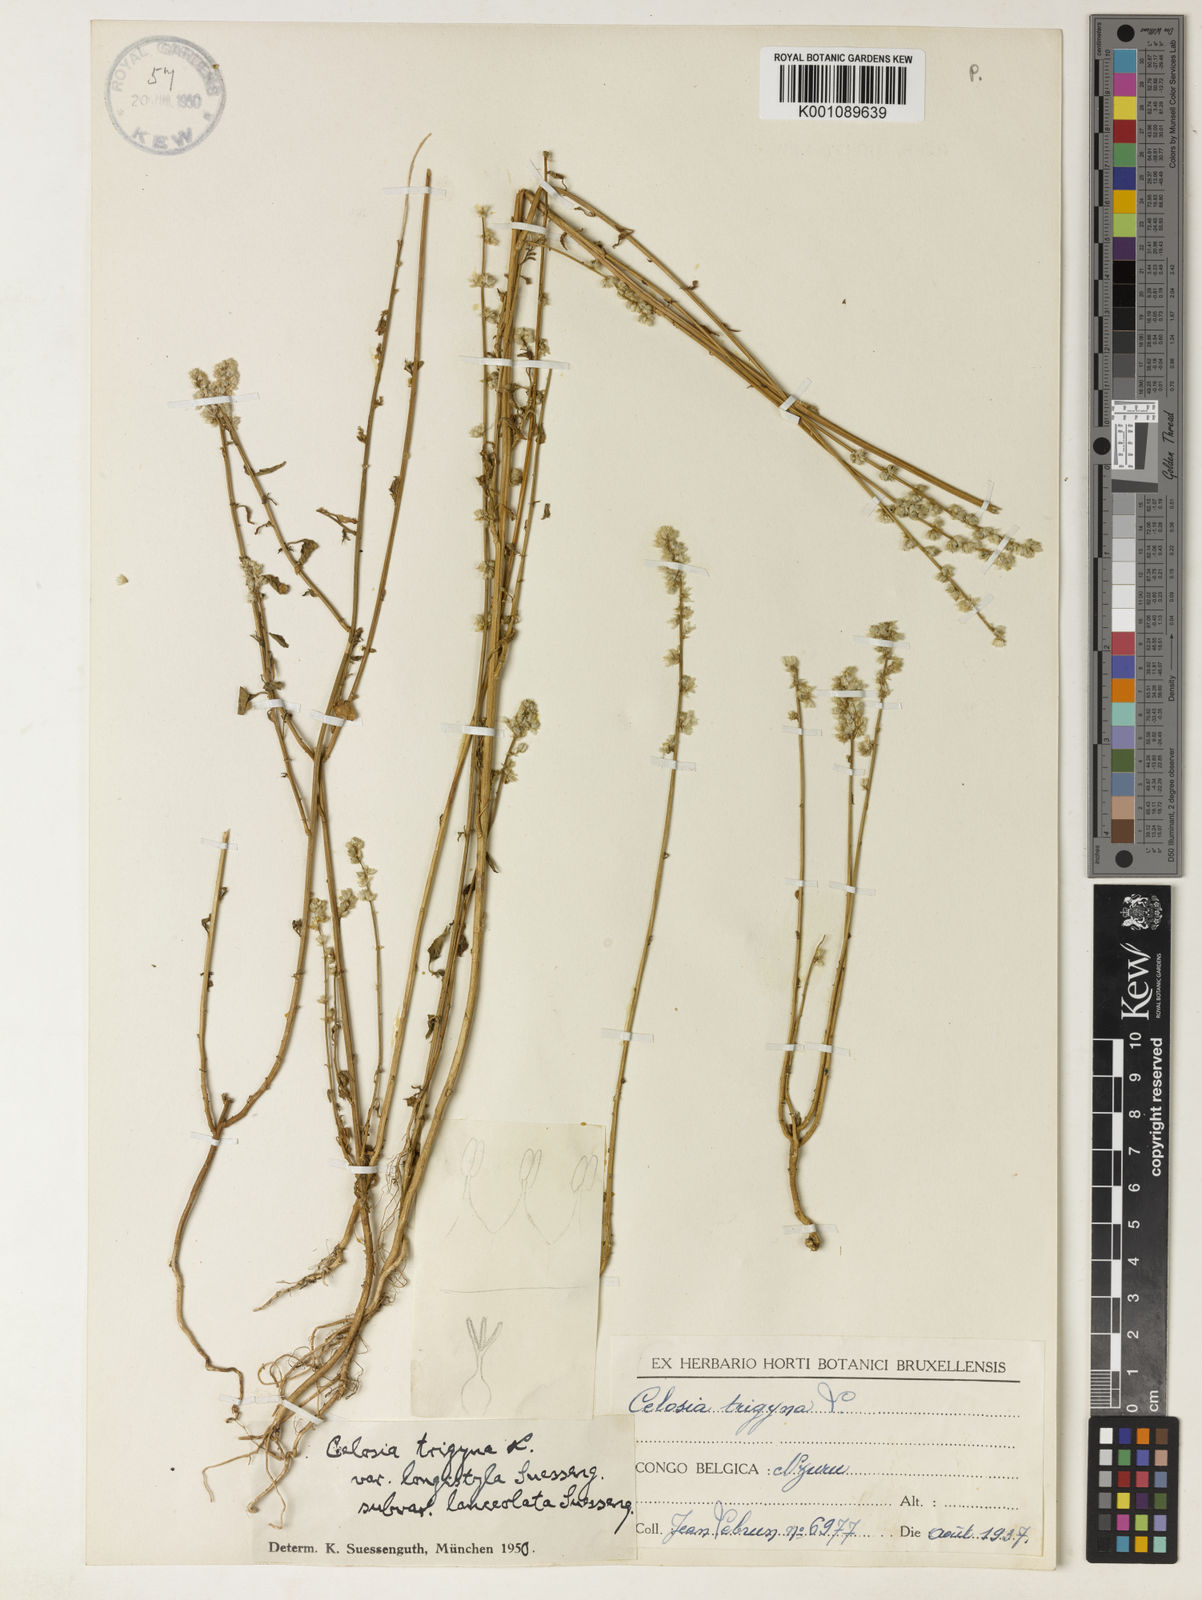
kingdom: Plantae
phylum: Tracheophyta
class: Magnoliopsida
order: Caryophyllales
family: Amaranthaceae
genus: Celosia
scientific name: Celosia
